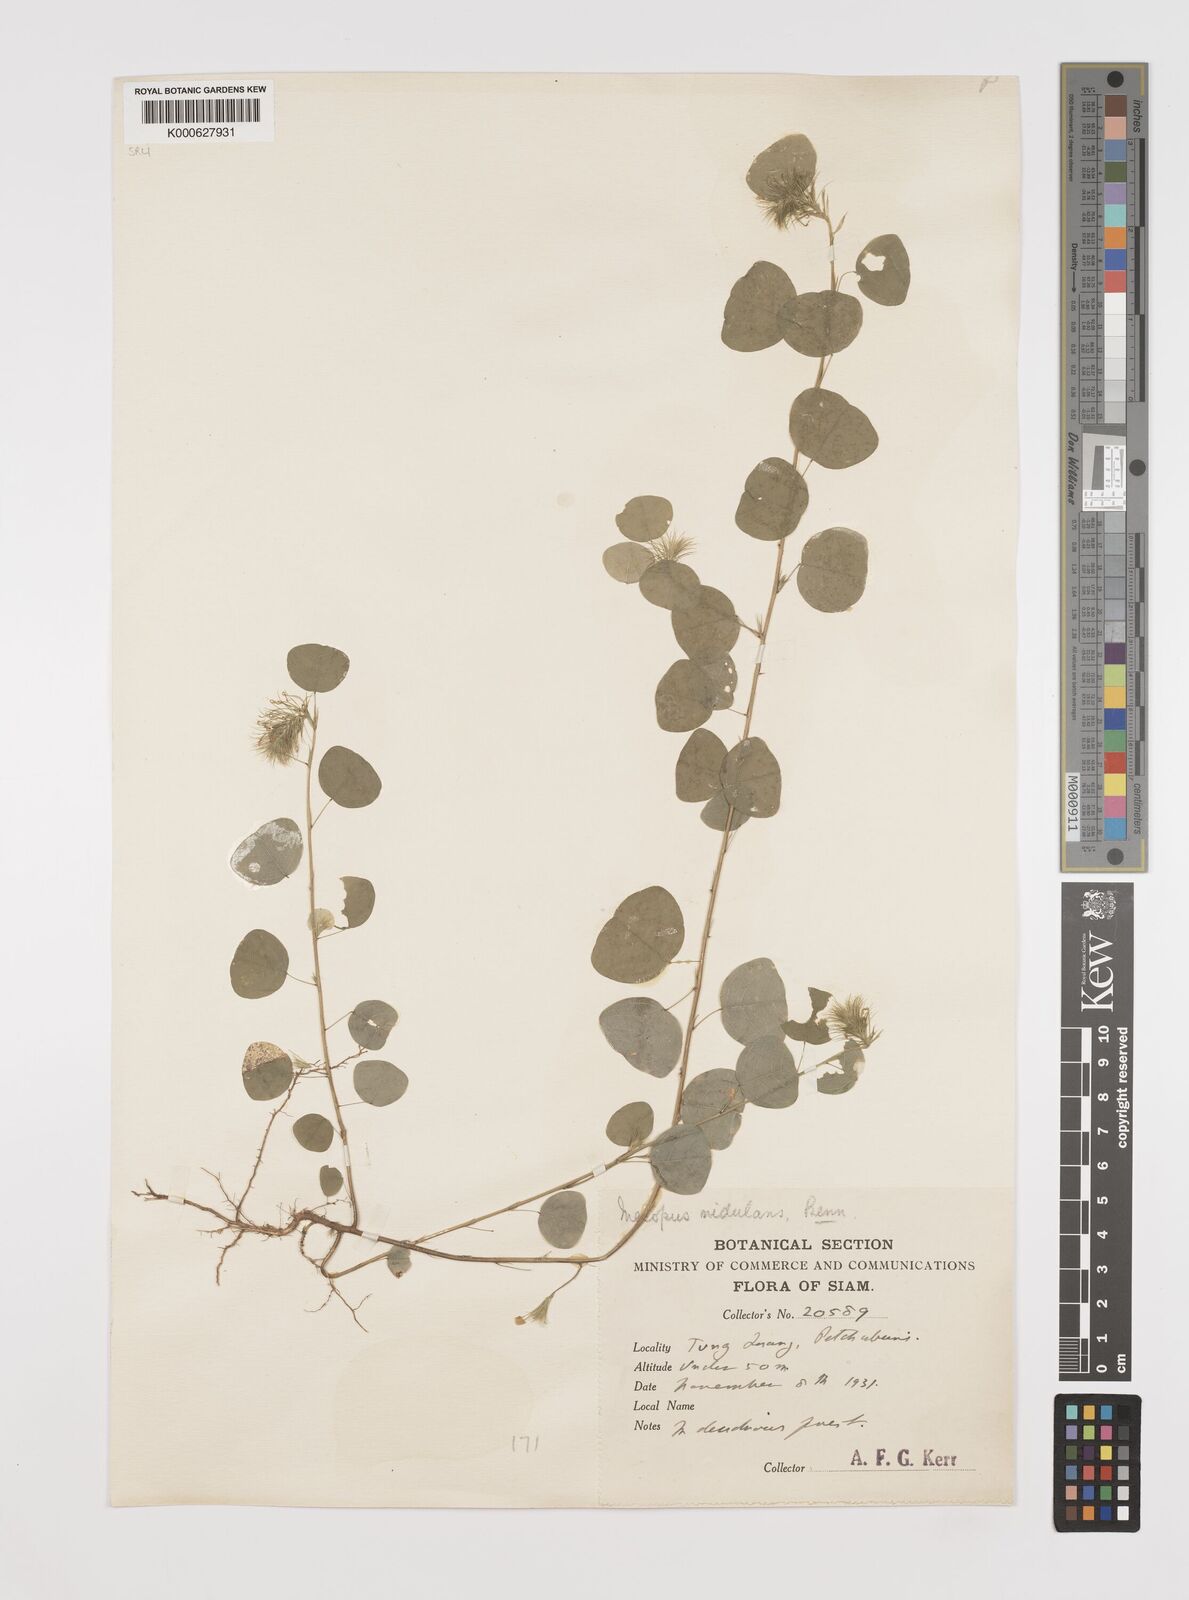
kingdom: Plantae
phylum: Tracheophyta
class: Magnoliopsida
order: Fabales
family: Fabaceae
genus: Mecopus
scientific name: Mecopus nidulans
